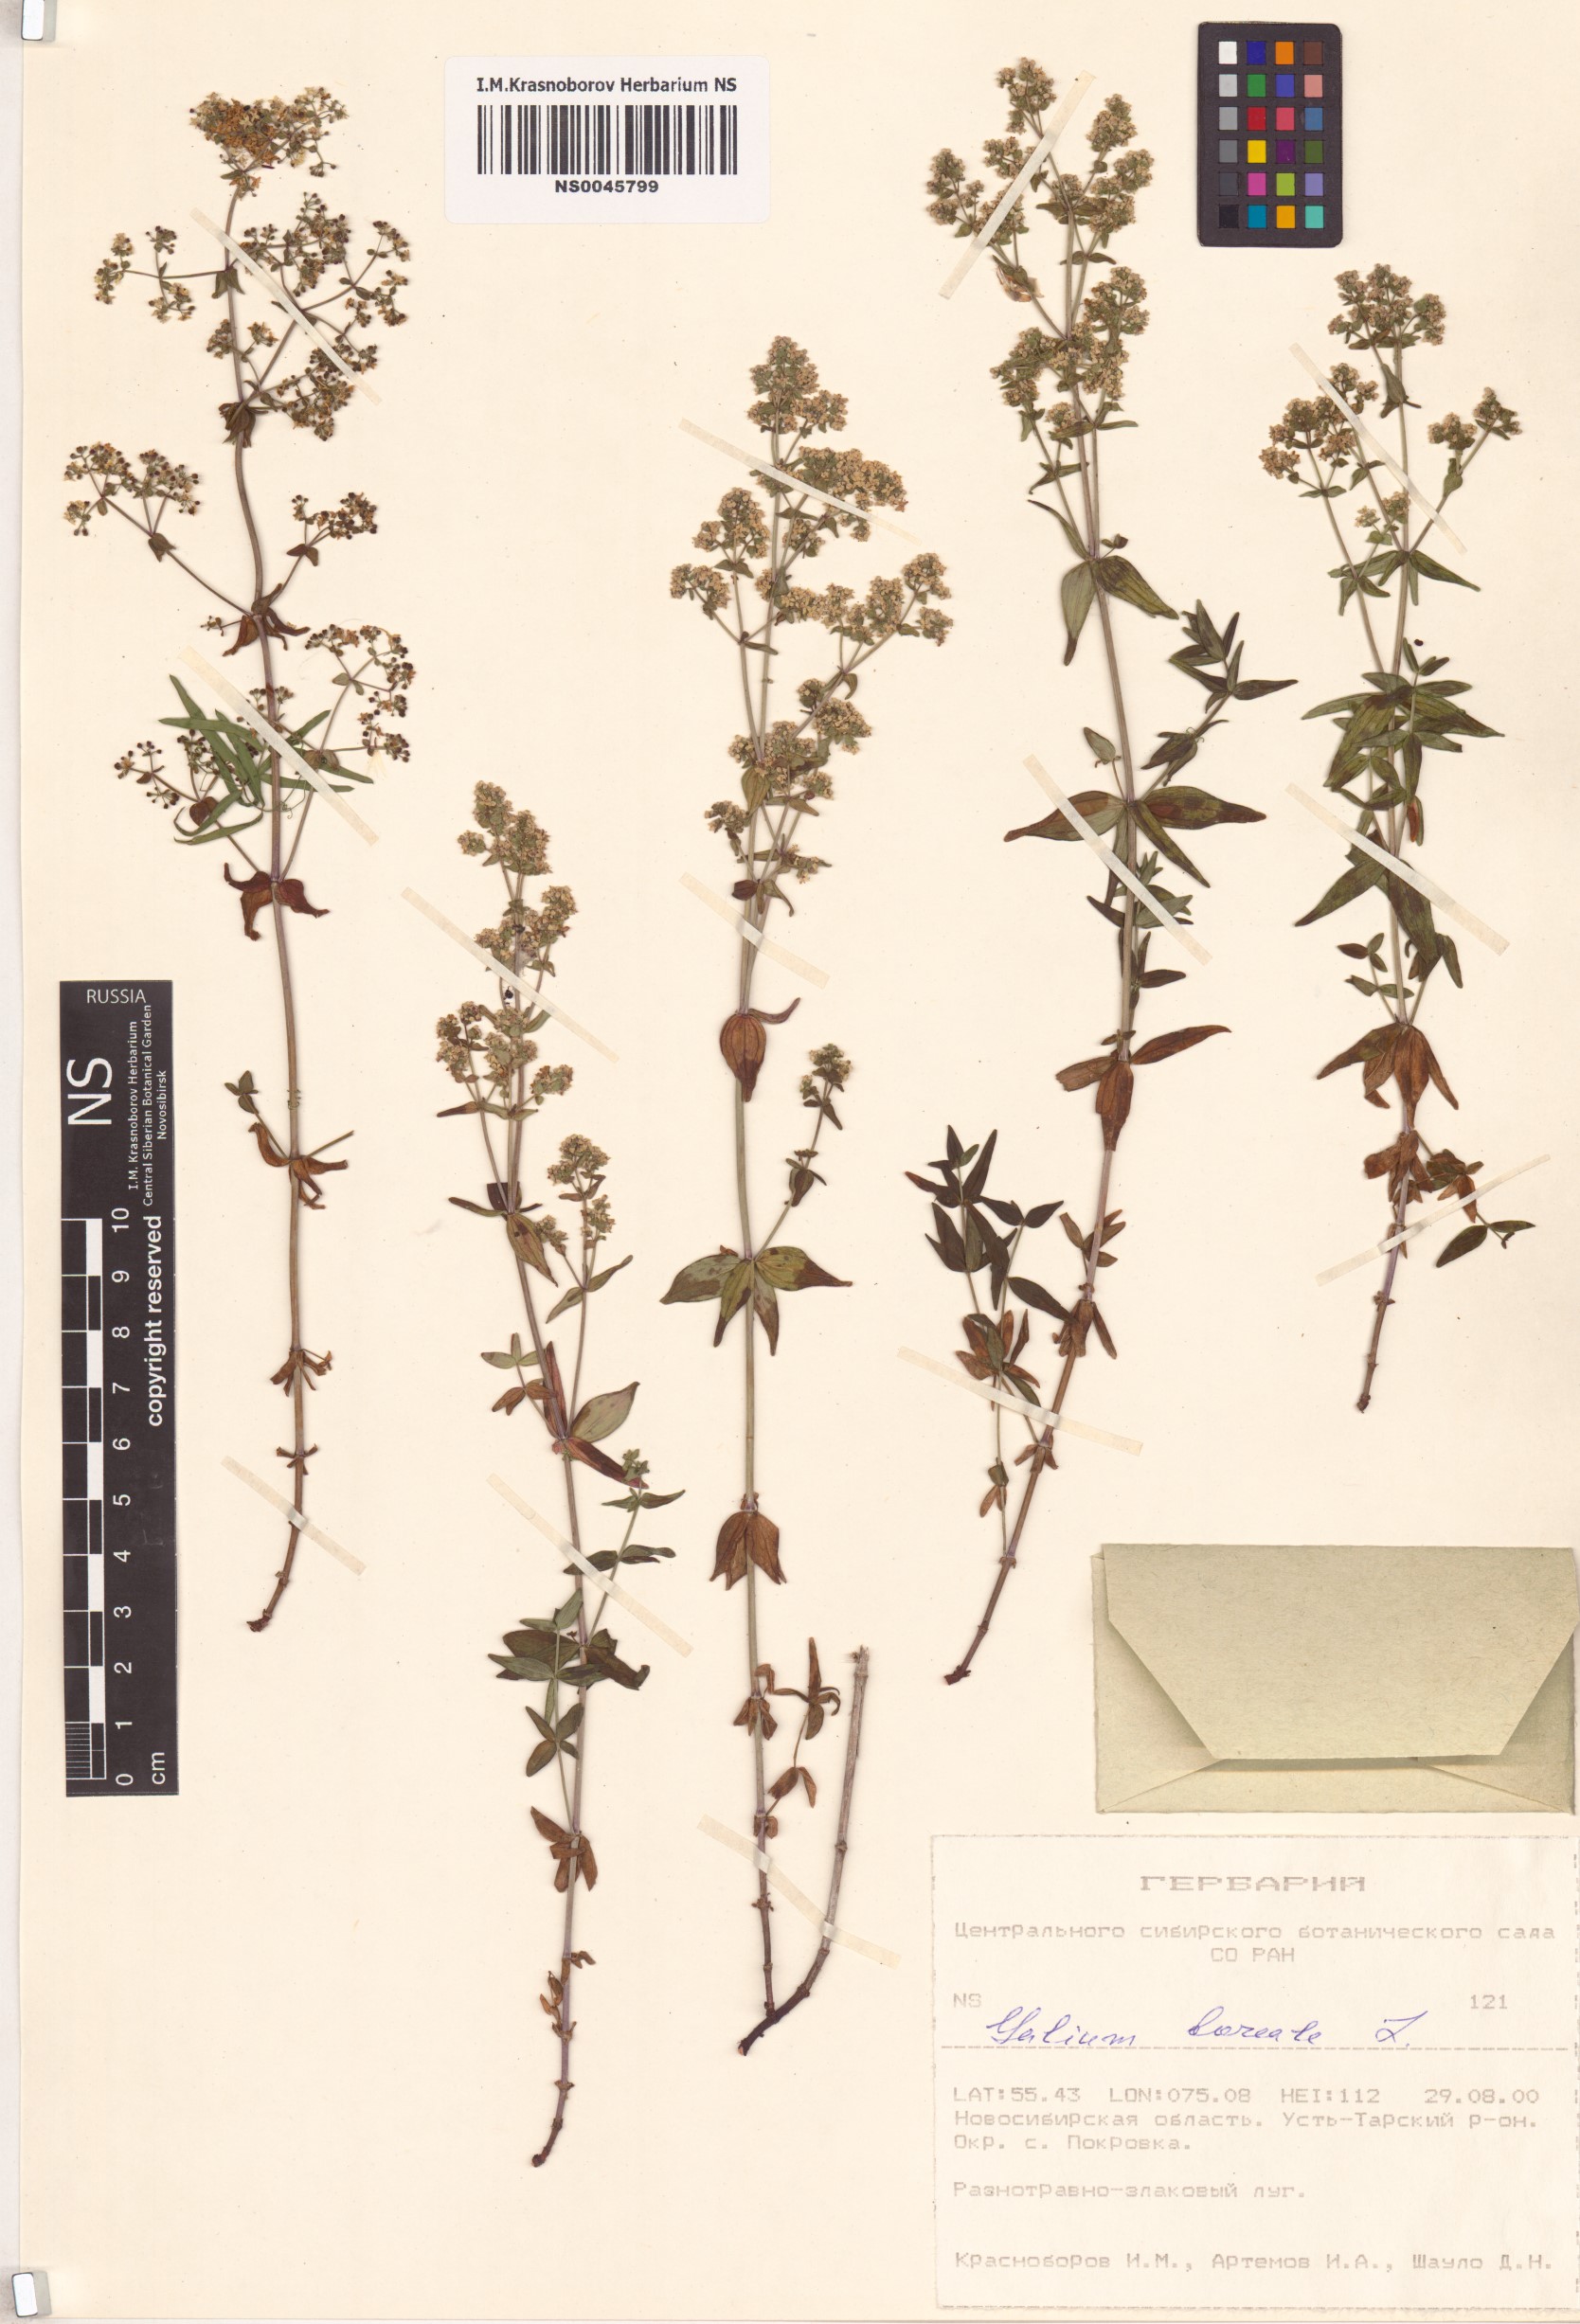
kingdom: Plantae
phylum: Tracheophyta
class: Magnoliopsida
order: Gentianales
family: Rubiaceae
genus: Galium
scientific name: Galium boreale
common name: Northern bedstraw
